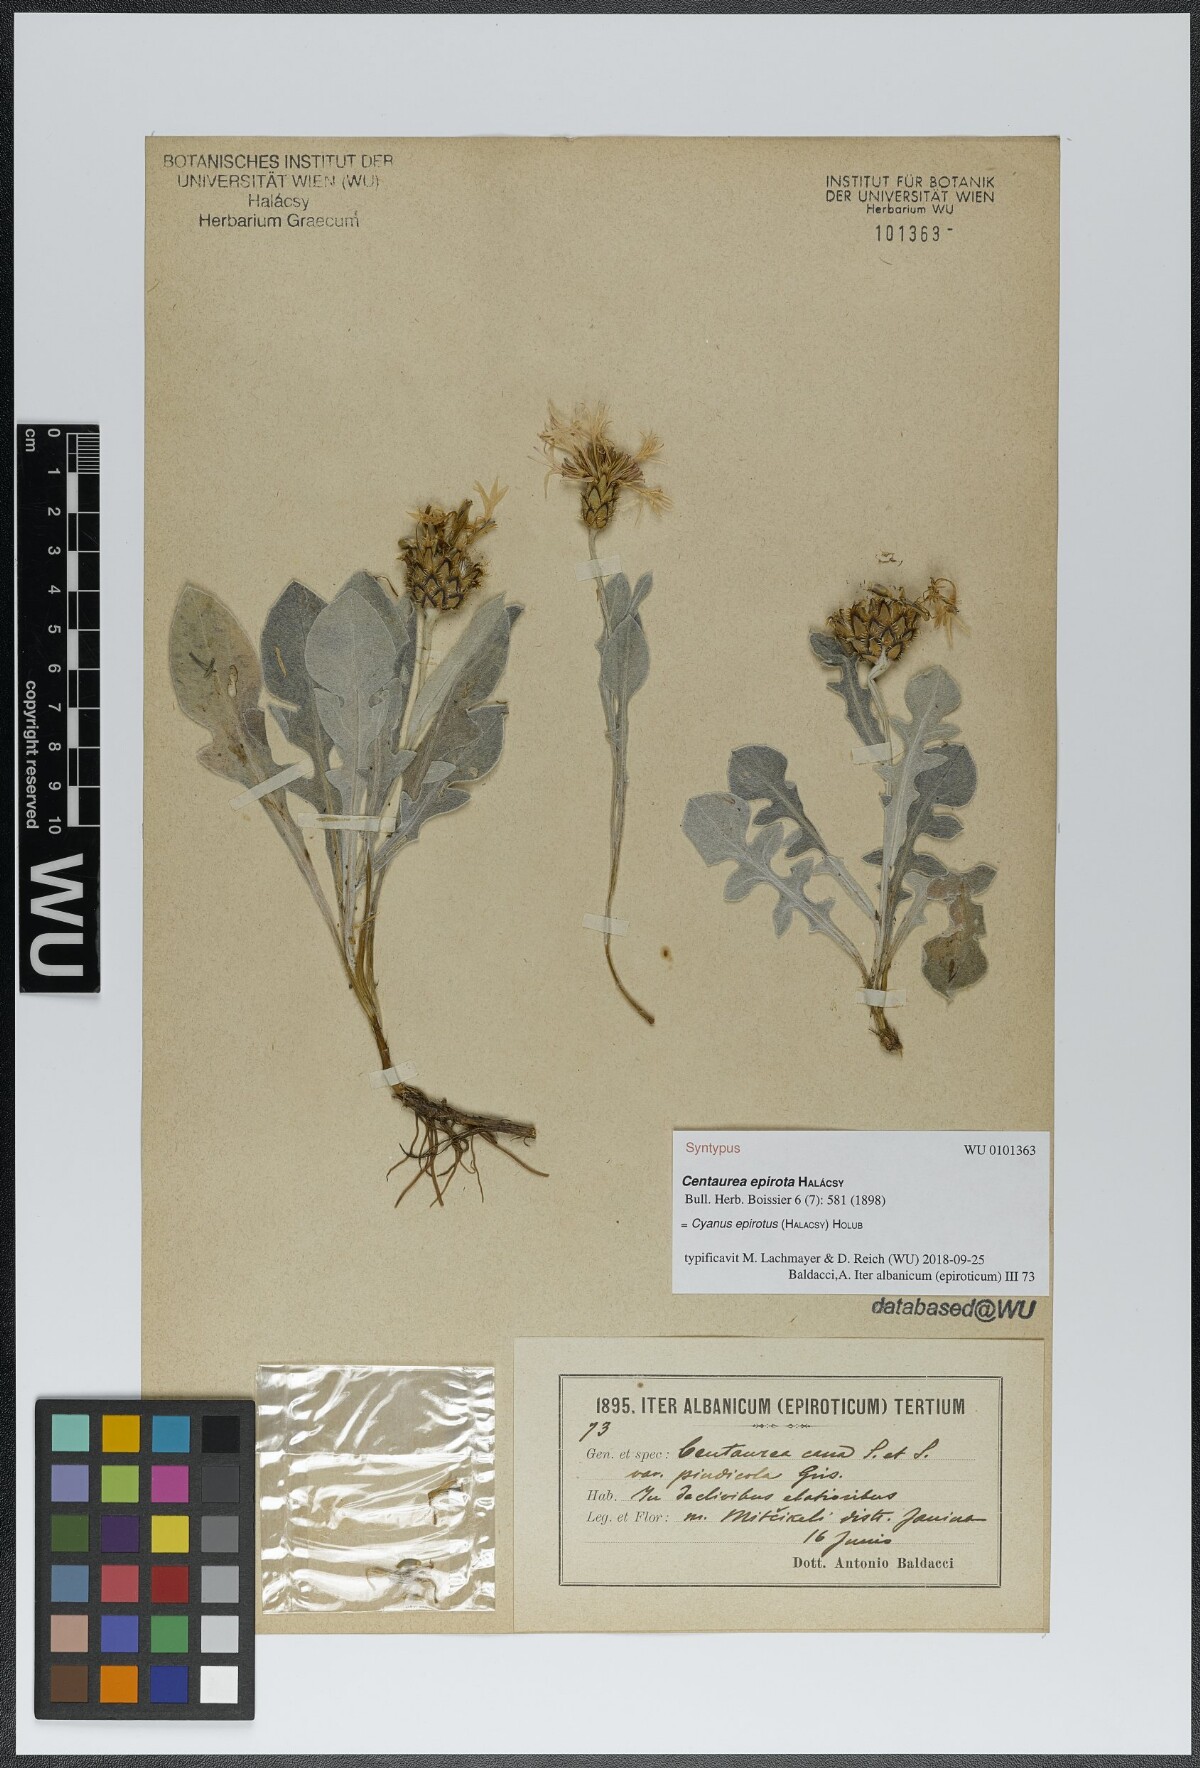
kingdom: Plantae
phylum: Tracheophyta
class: Magnoliopsida
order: Asterales
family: Asteraceae
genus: Centaurea
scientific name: Centaurea epirota
